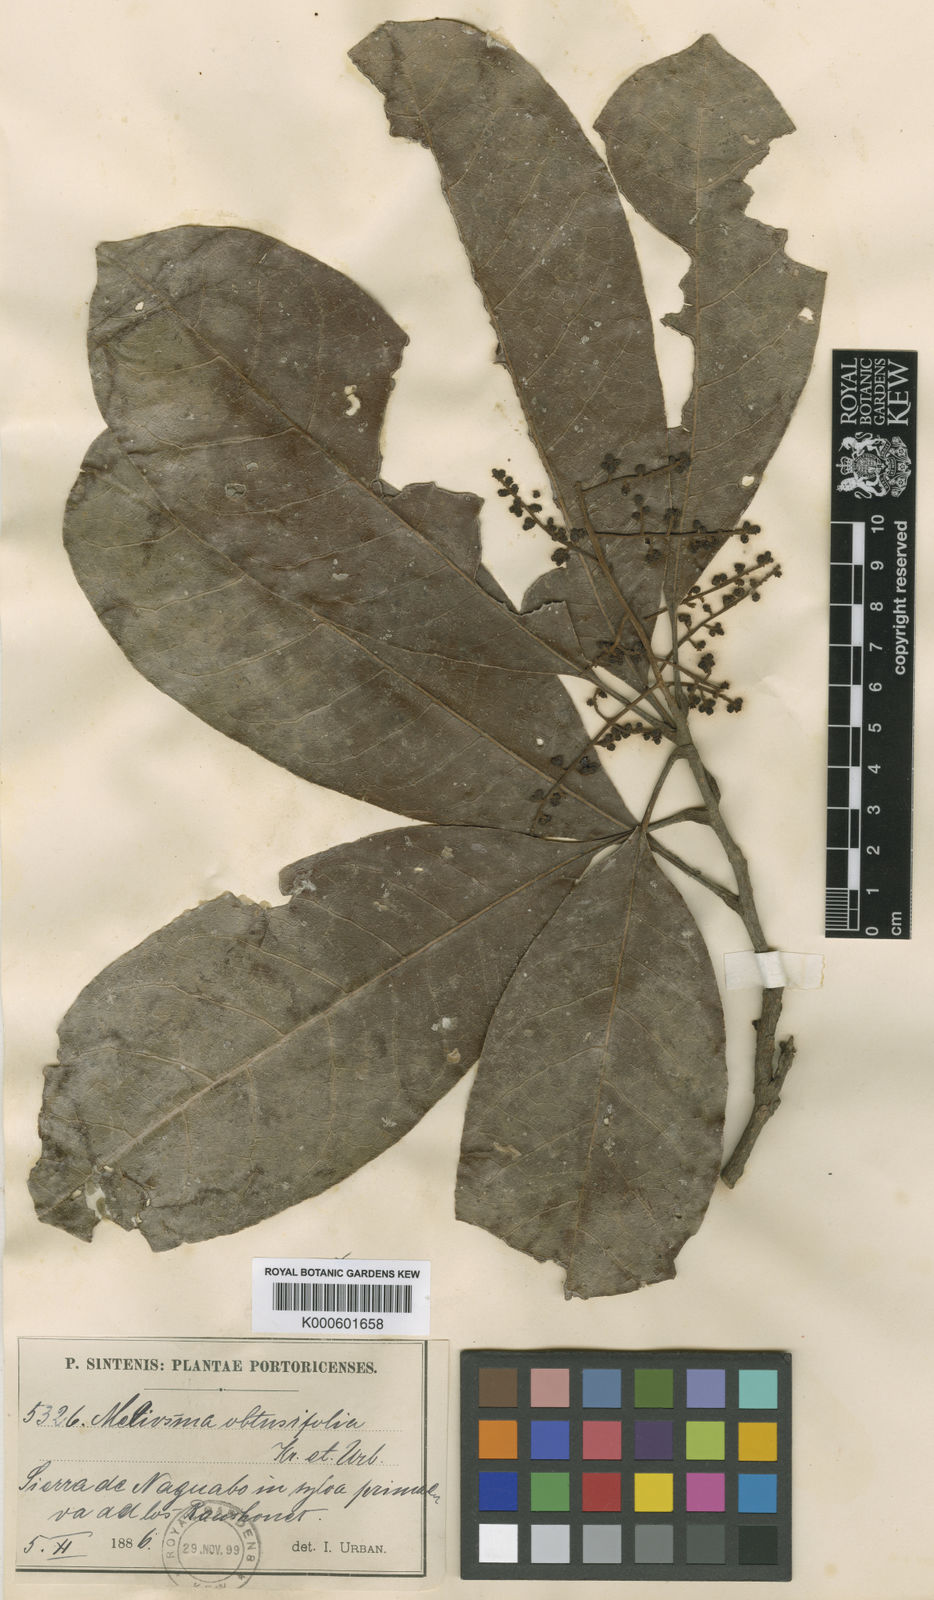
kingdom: Plantae
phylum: Tracheophyta
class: Magnoliopsida
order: Proteales
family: Sabiaceae
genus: Meliosma
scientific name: Meliosma obtusifolia
